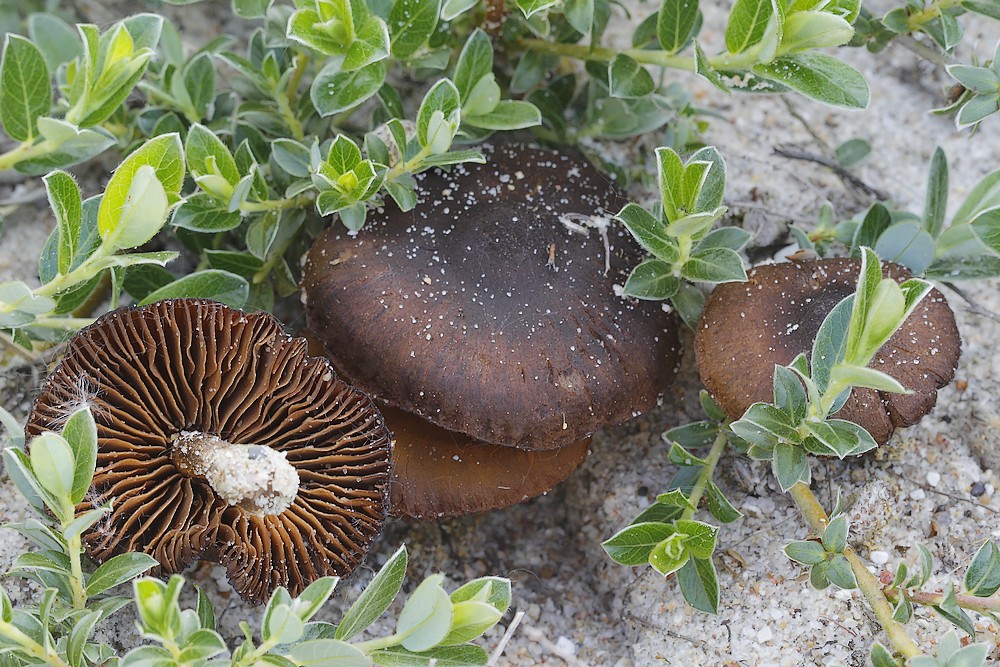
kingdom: Fungi
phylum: Basidiomycota
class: Agaricomycetes
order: Agaricales
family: Cortinariaceae
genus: Cortinarius
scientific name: Cortinarius suberythrinus
